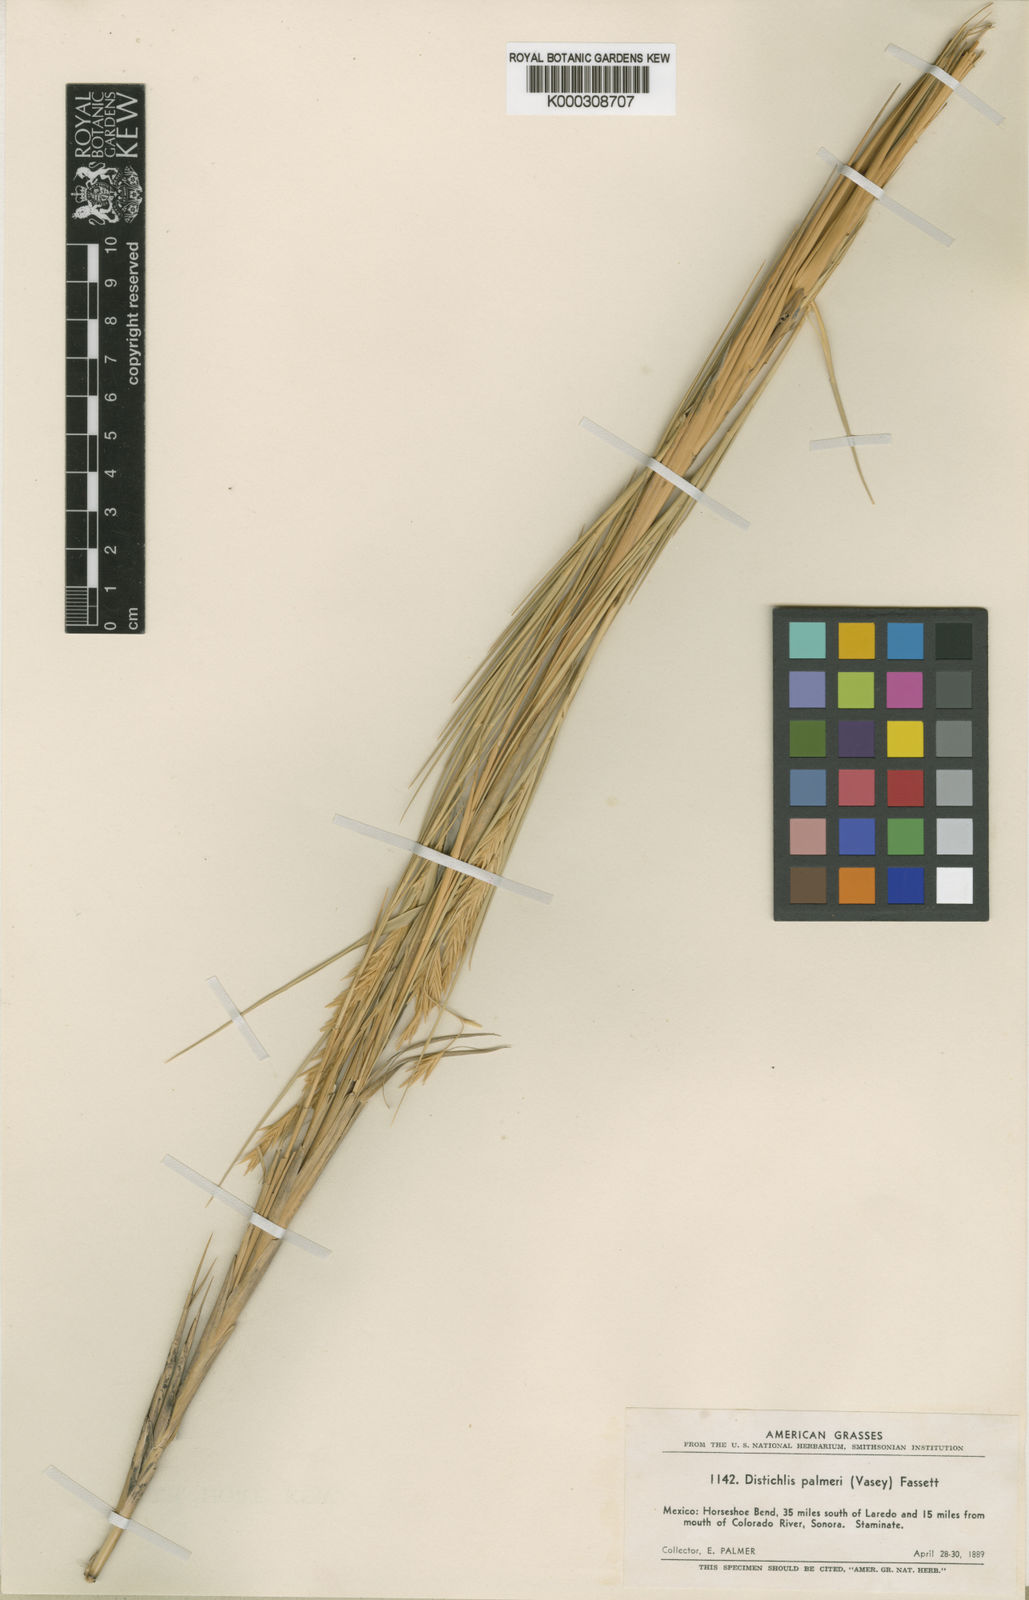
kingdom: Plantae
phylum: Tracheophyta
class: Liliopsida
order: Poales
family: Poaceae
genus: Distichlis
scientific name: Distichlis palmeri
